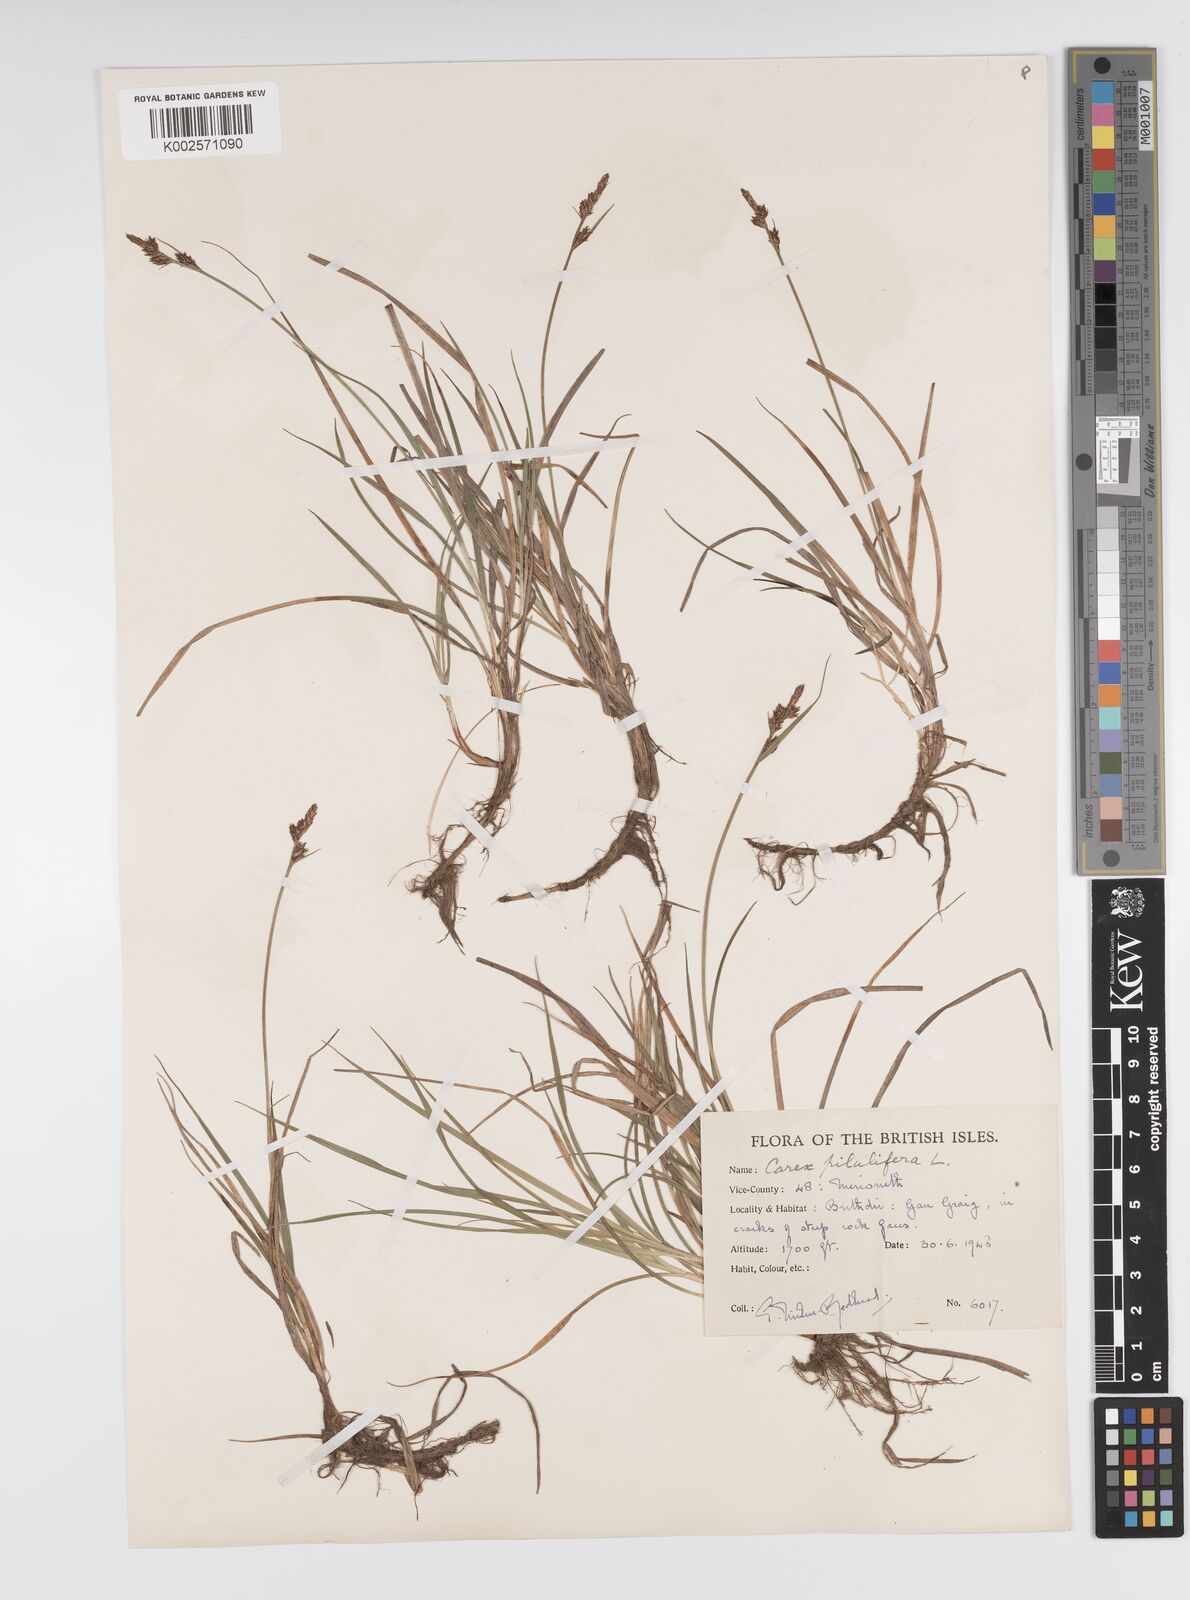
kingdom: Plantae
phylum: Tracheophyta
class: Liliopsida
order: Poales
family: Cyperaceae
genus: Carex
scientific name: Carex pilulifera
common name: Pill sedge
